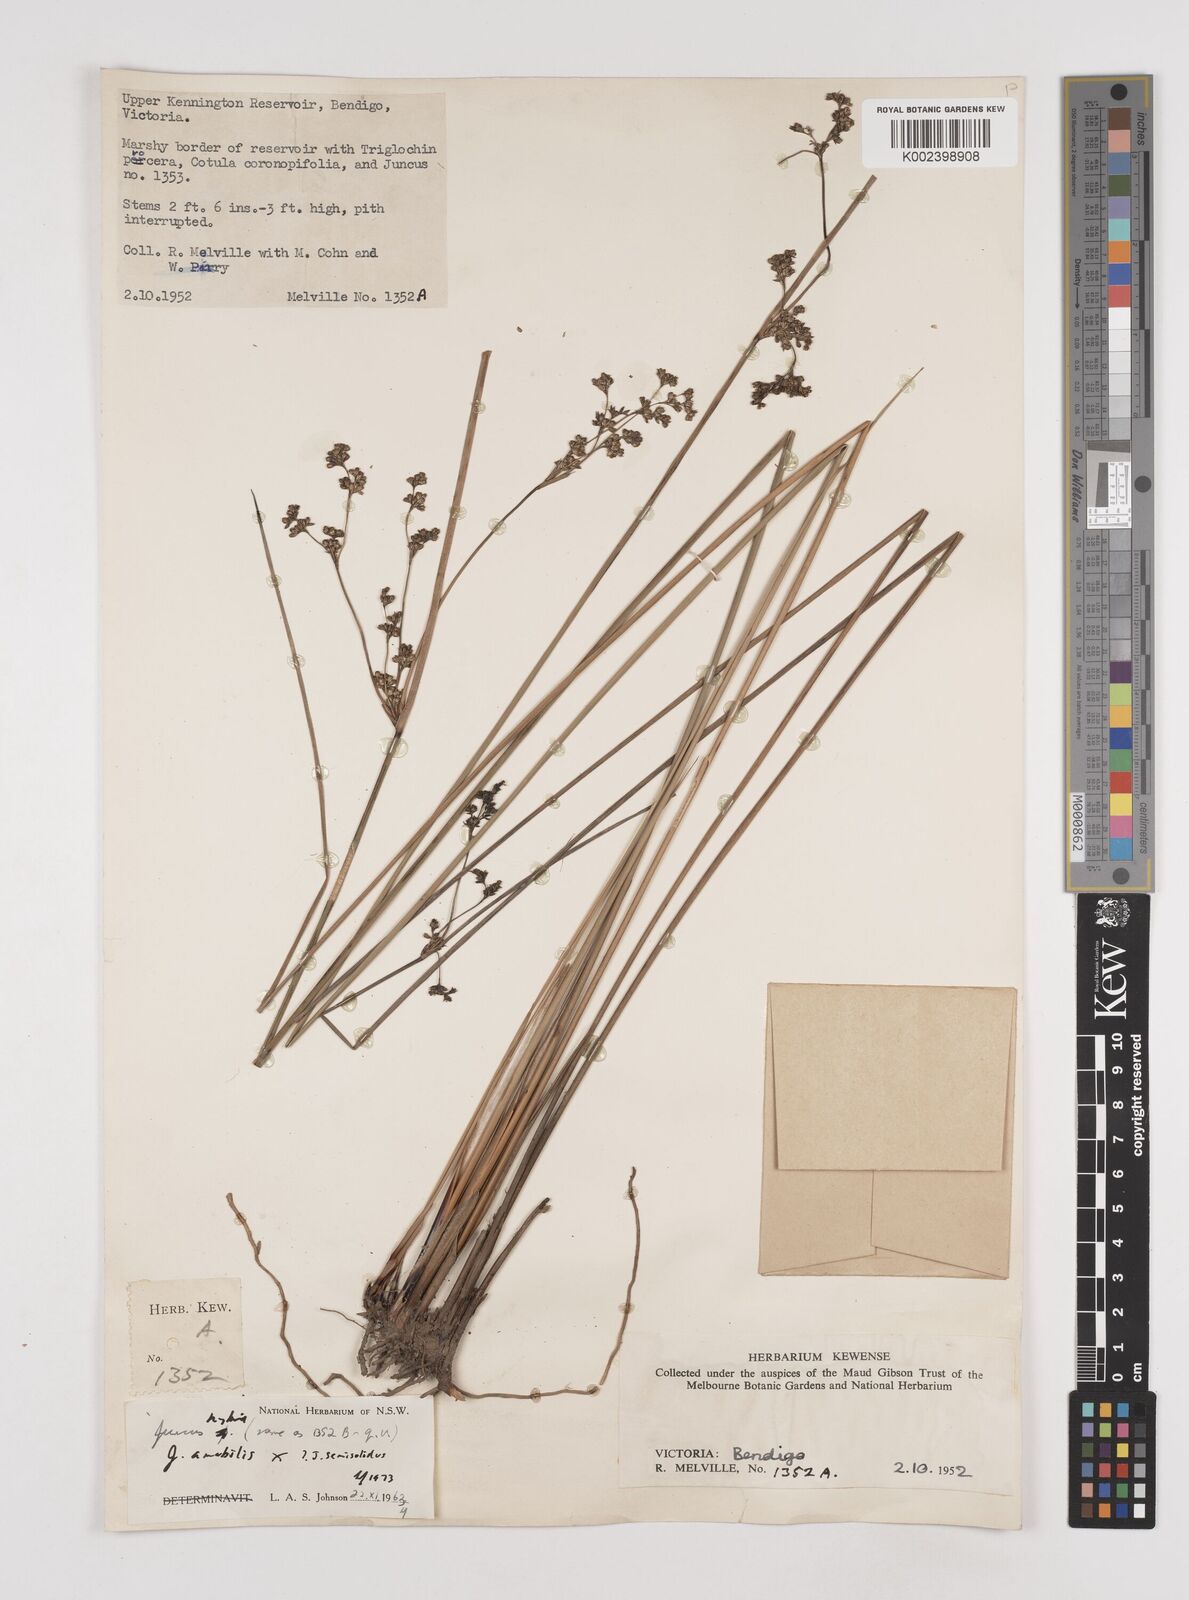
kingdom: Plantae
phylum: Tracheophyta
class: Liliopsida
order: Poales
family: Juncaceae
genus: Juncus
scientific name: Juncus amabilis
